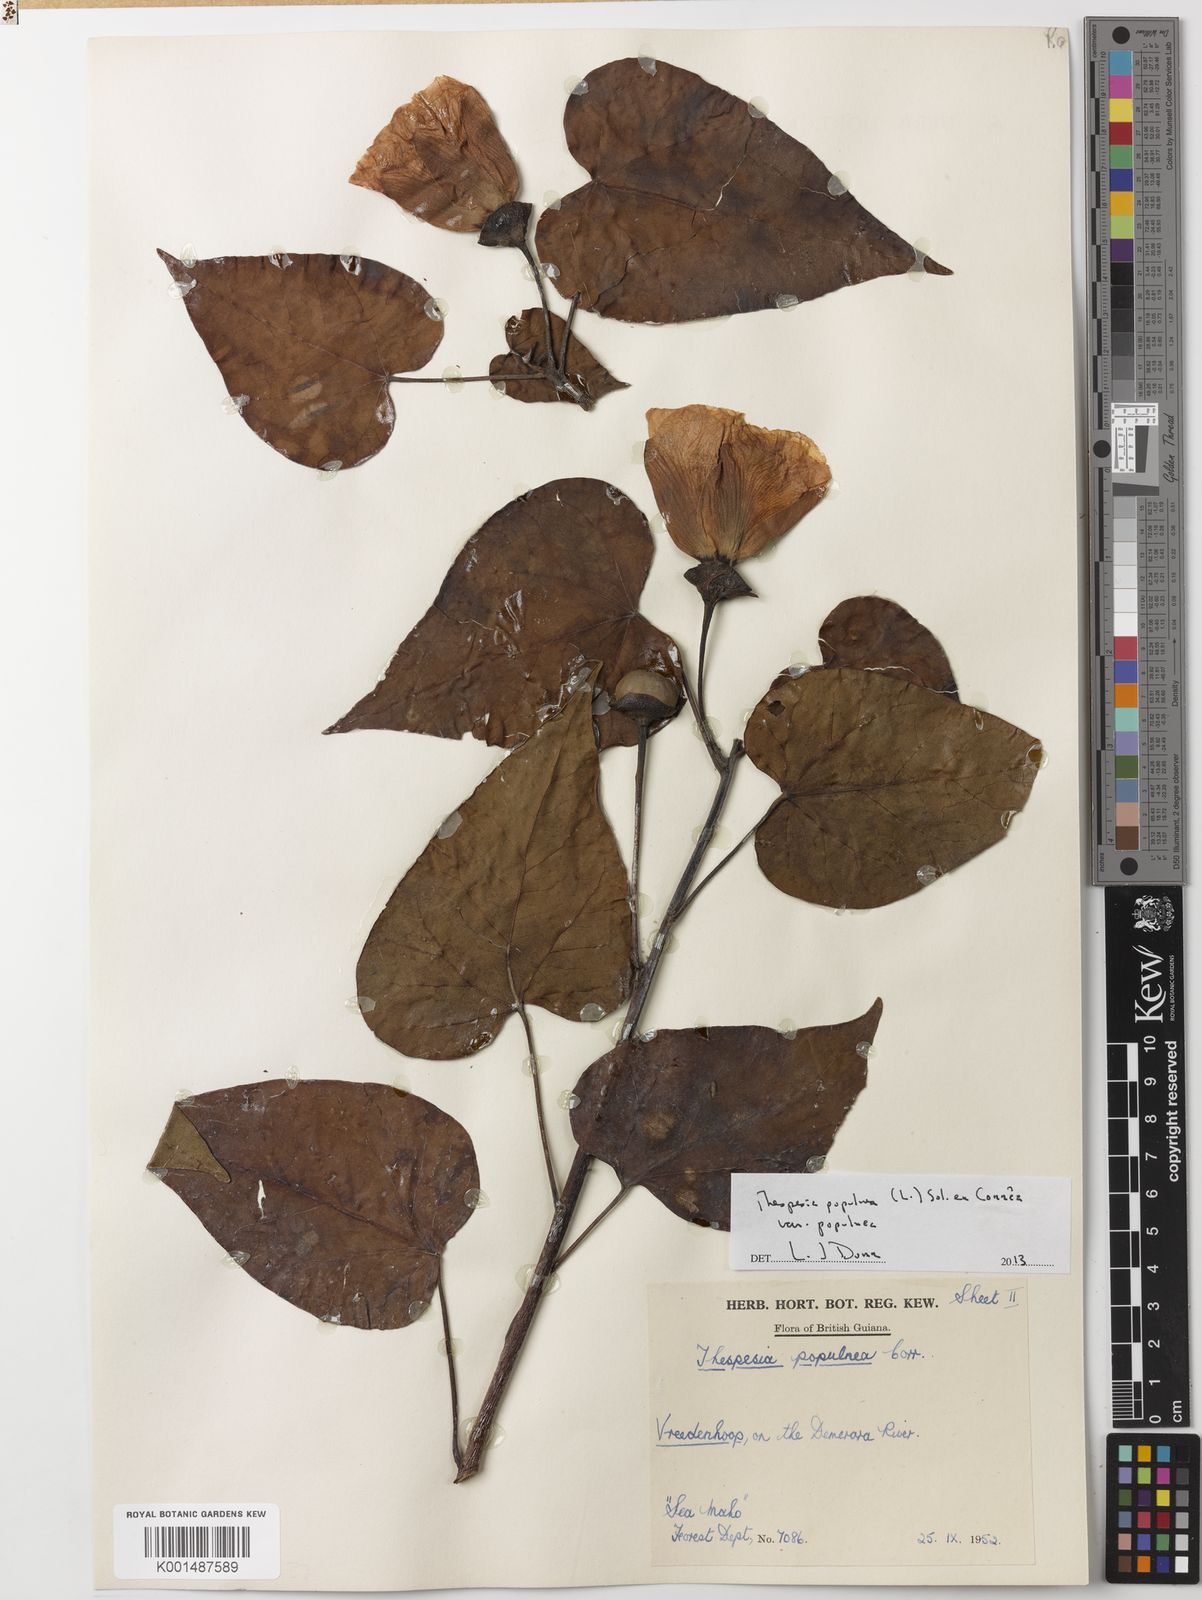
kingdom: Plantae
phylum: Tracheophyta
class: Magnoliopsida
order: Malvales
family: Malvaceae
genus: Thespesia
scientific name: Thespesia populnea
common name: Seaside mahoe
